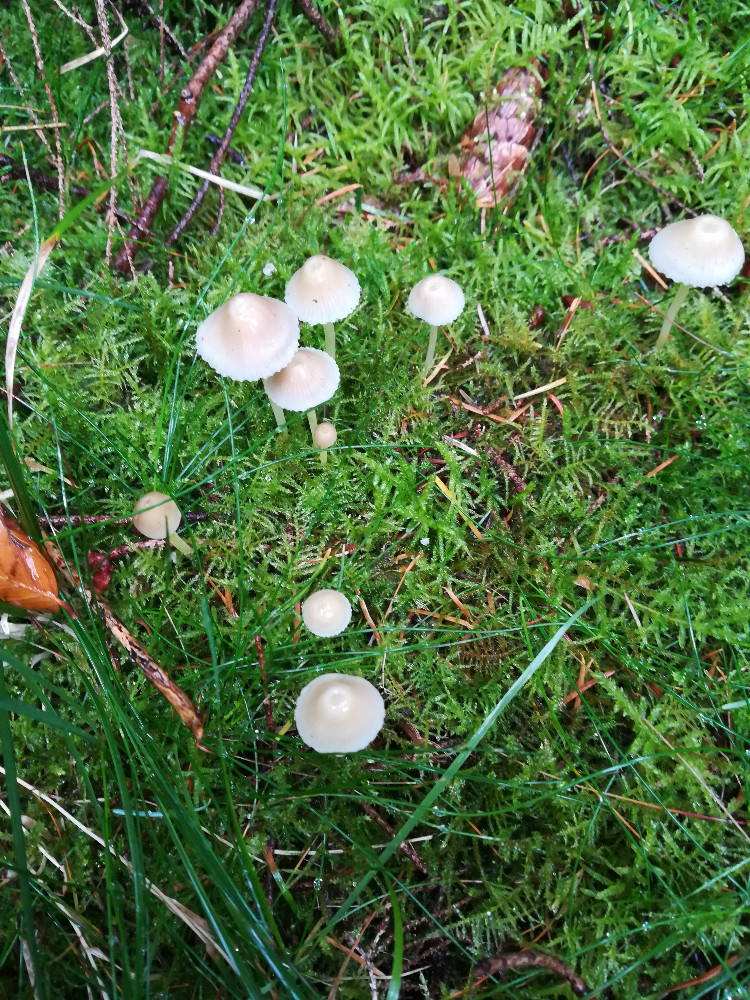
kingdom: Fungi
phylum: Basidiomycota
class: Agaricomycetes
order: Agaricales
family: Mycenaceae
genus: Mycena
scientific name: Mycena epipterygia
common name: gulstokket huesvamp
